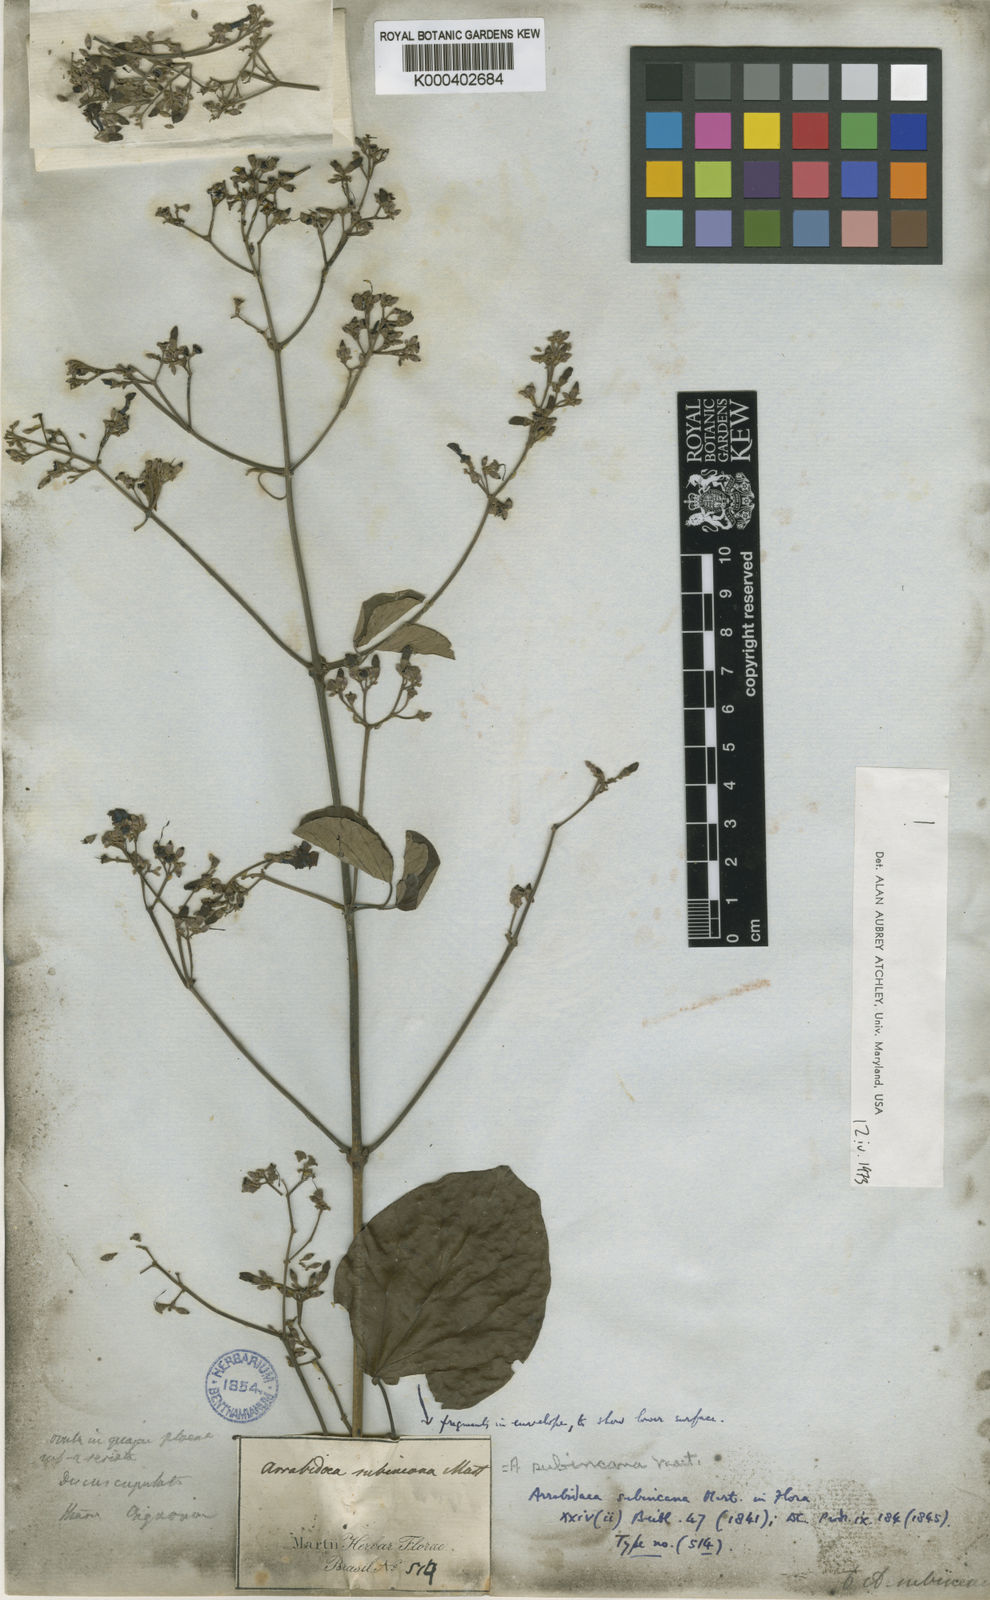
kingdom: Plantae
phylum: Tracheophyta
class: Magnoliopsida
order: Lamiales
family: Bignoniaceae
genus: Fridericia
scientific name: Fridericia subincana
